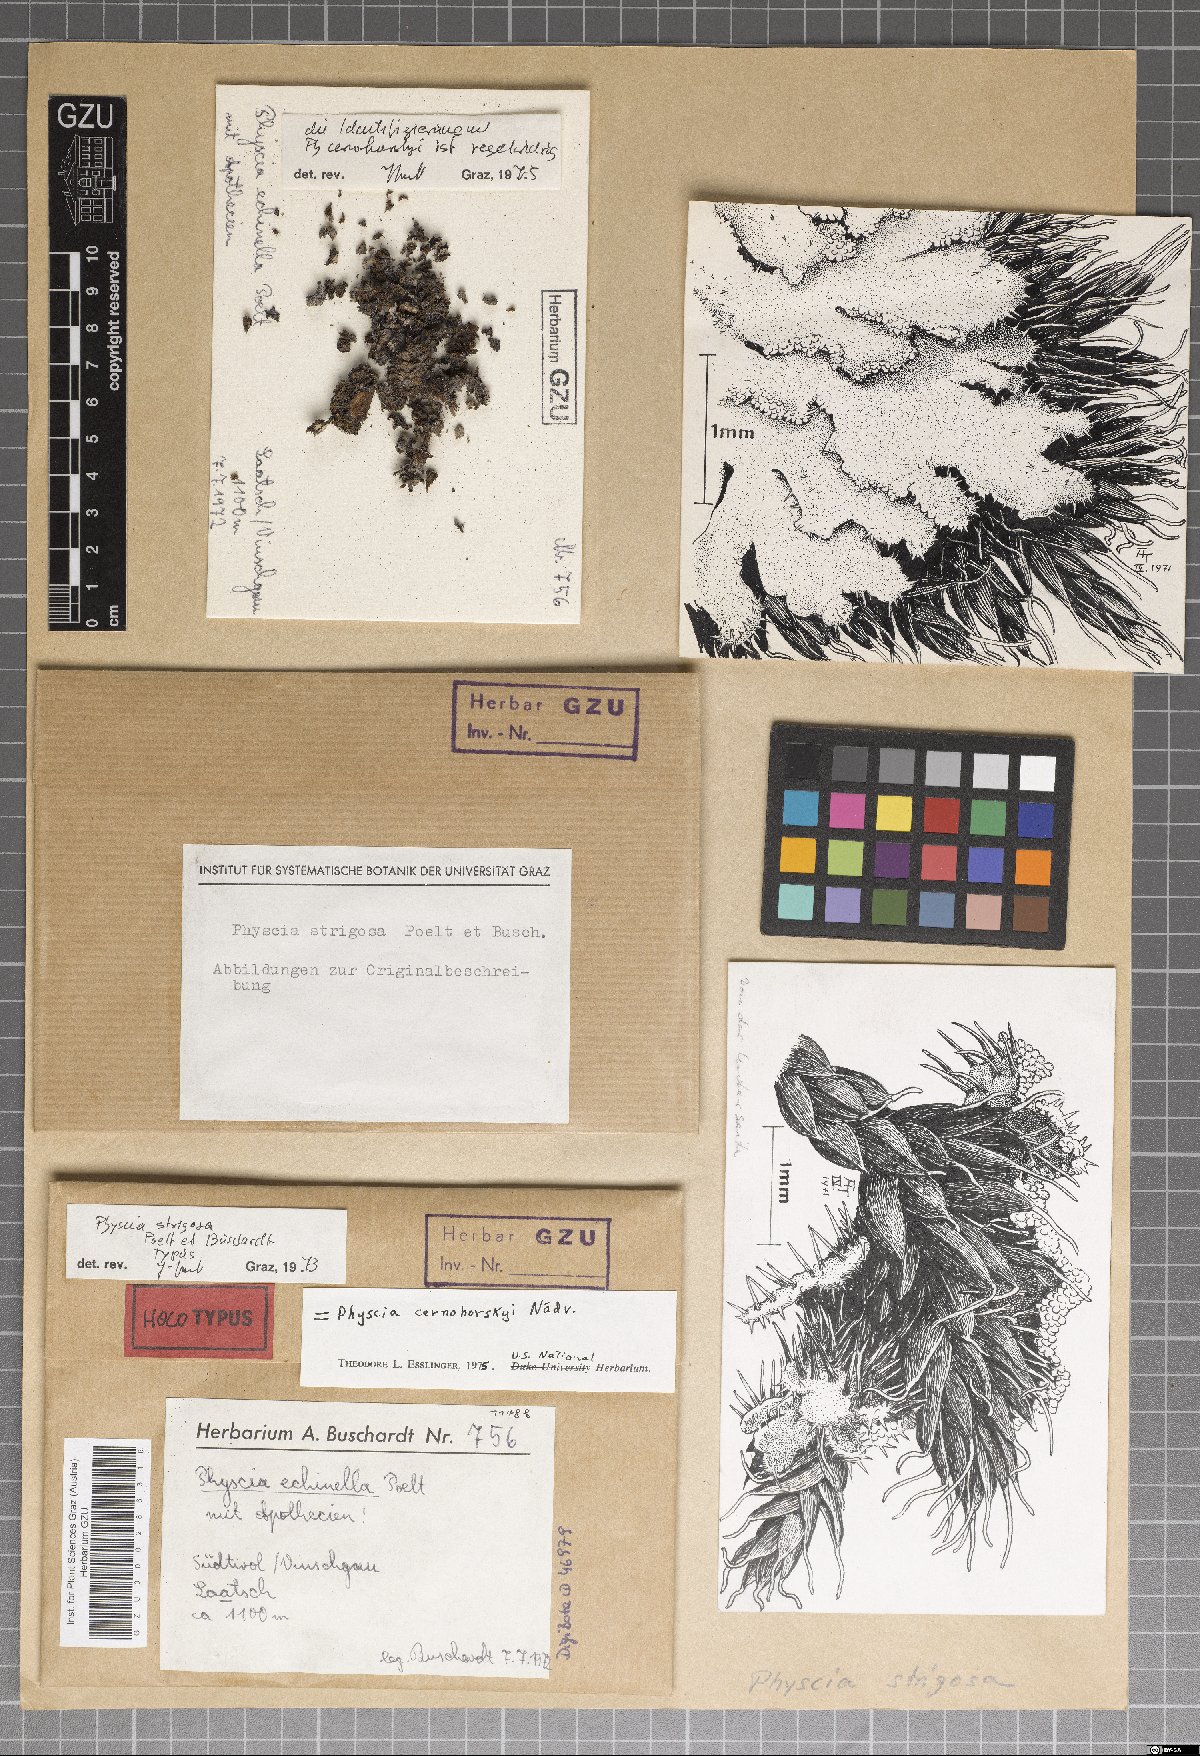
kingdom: Fungi
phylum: Ascomycota
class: Lecanoromycetes
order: Caliciales
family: Physciaceae
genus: Phaeophyscia
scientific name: Phaeophyscia cernohorskyi
